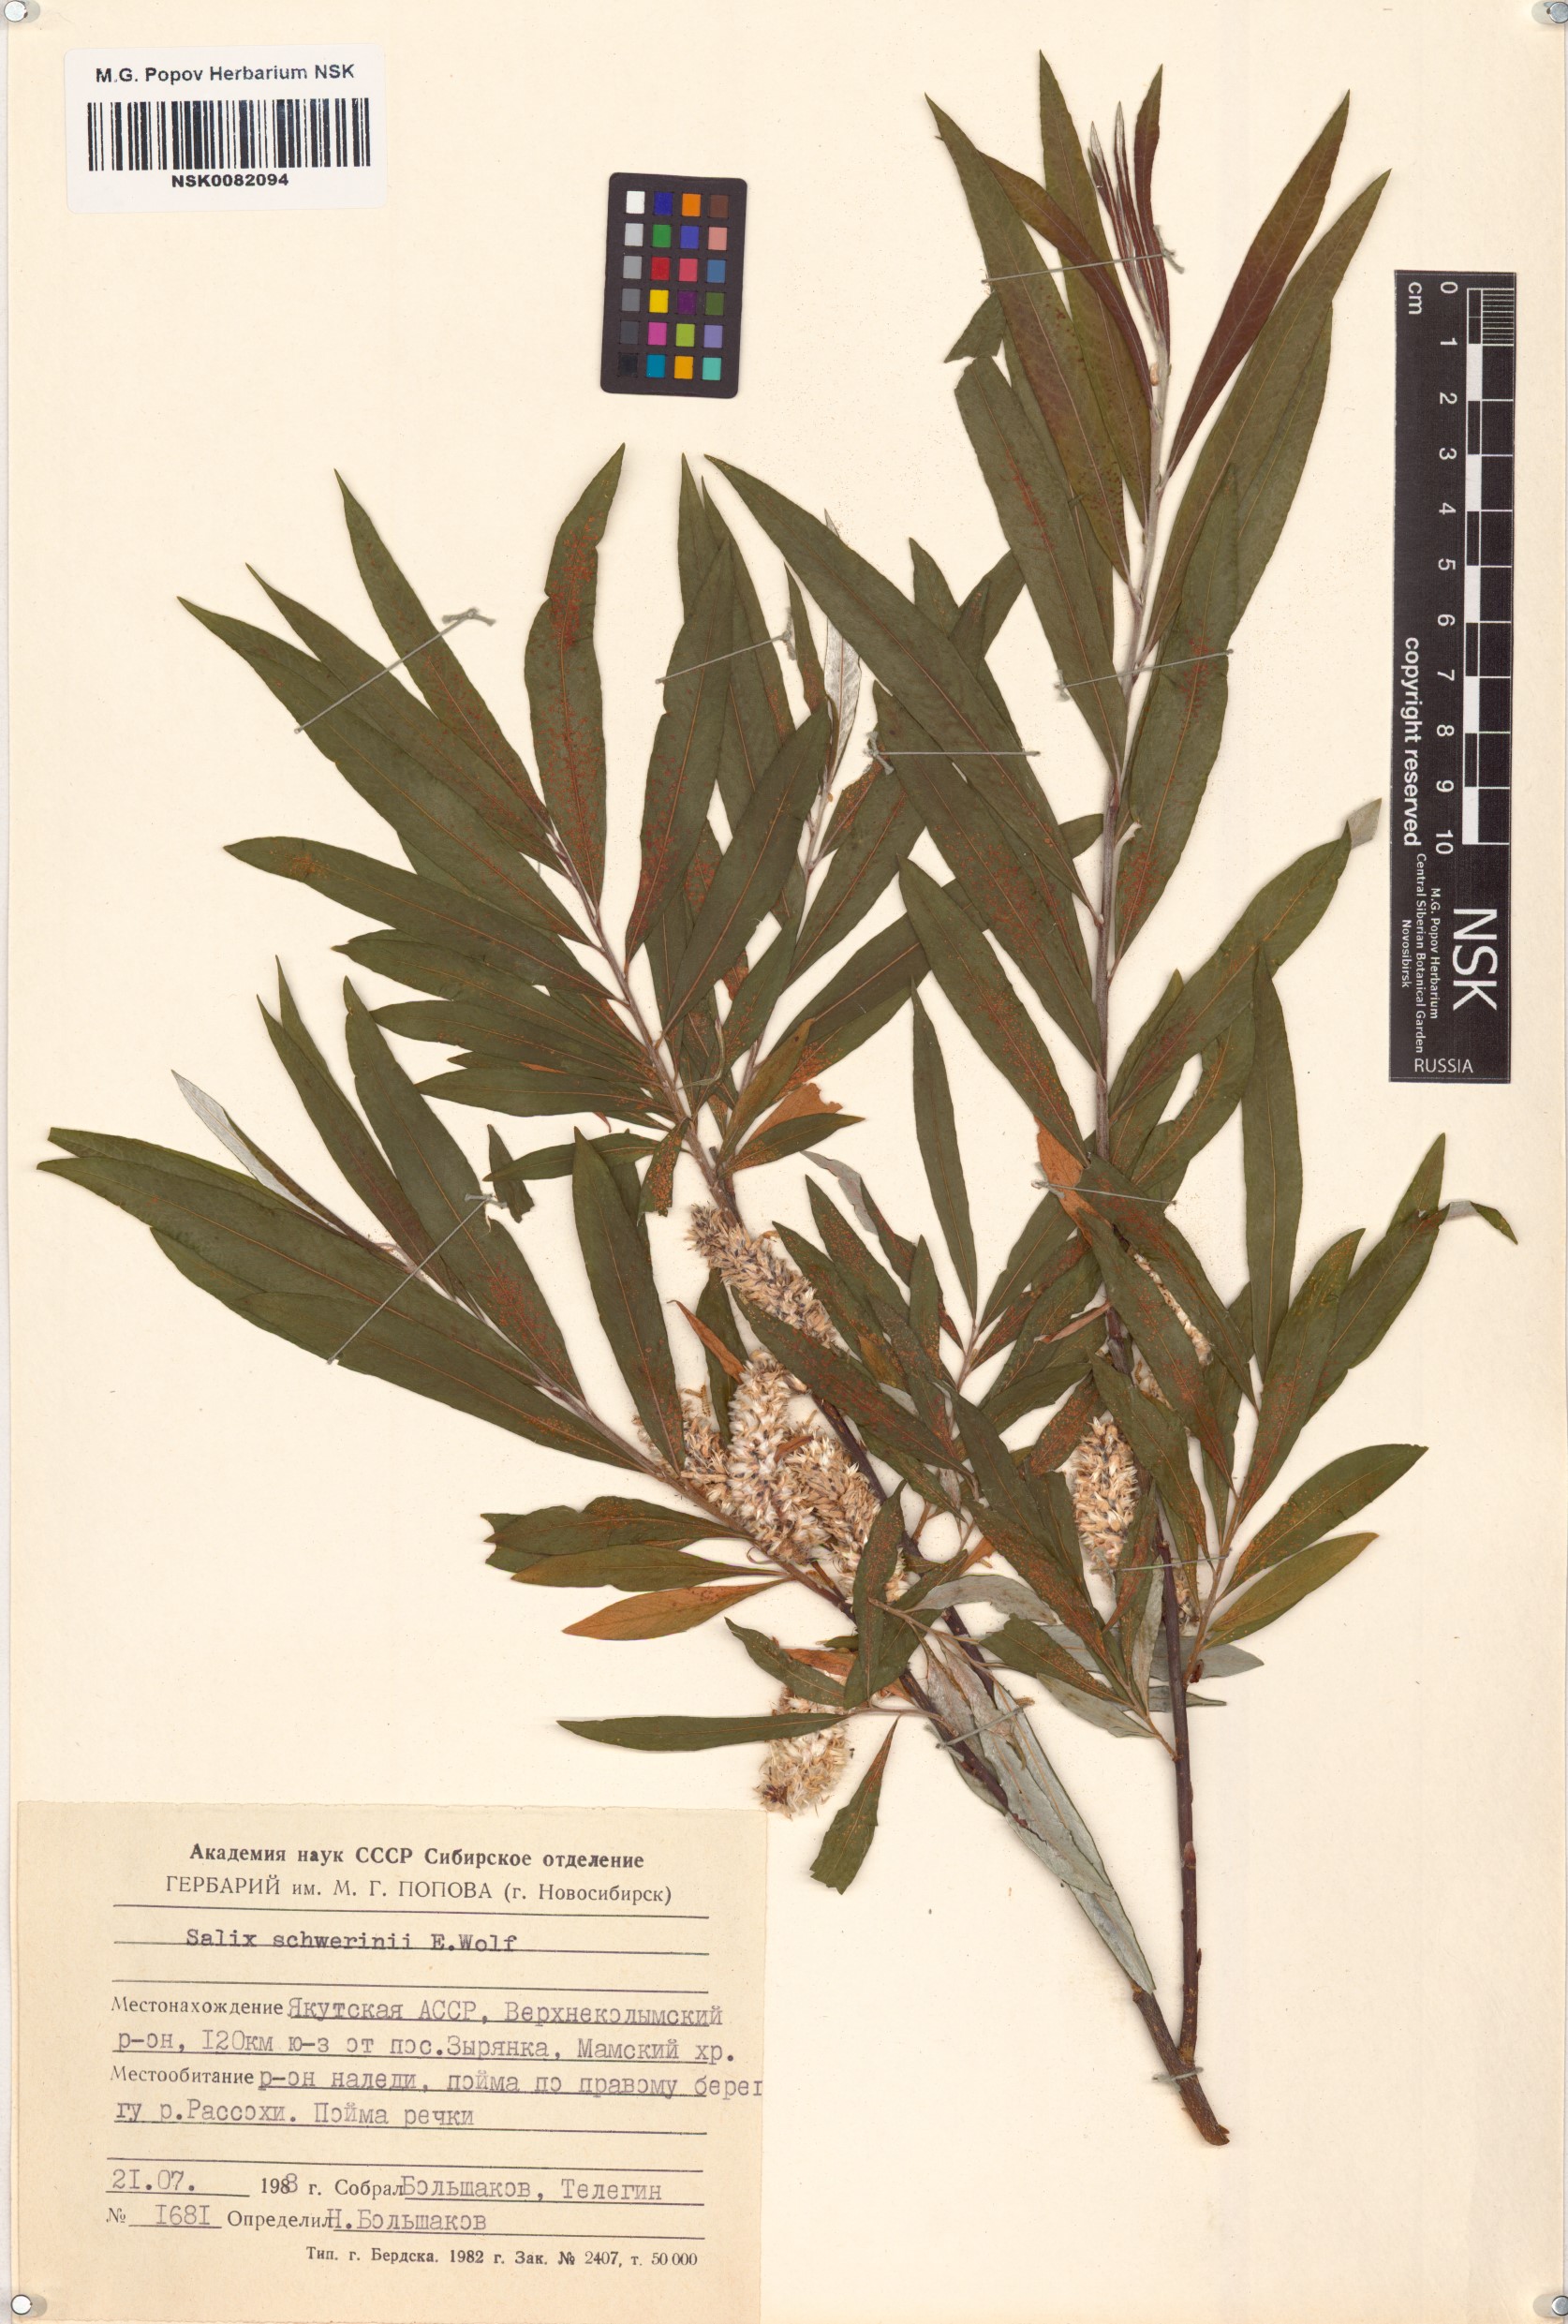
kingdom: Plantae
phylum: Tracheophyta
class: Magnoliopsida
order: Malpighiales
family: Salicaceae
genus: Salix
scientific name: Salix schwerinii
